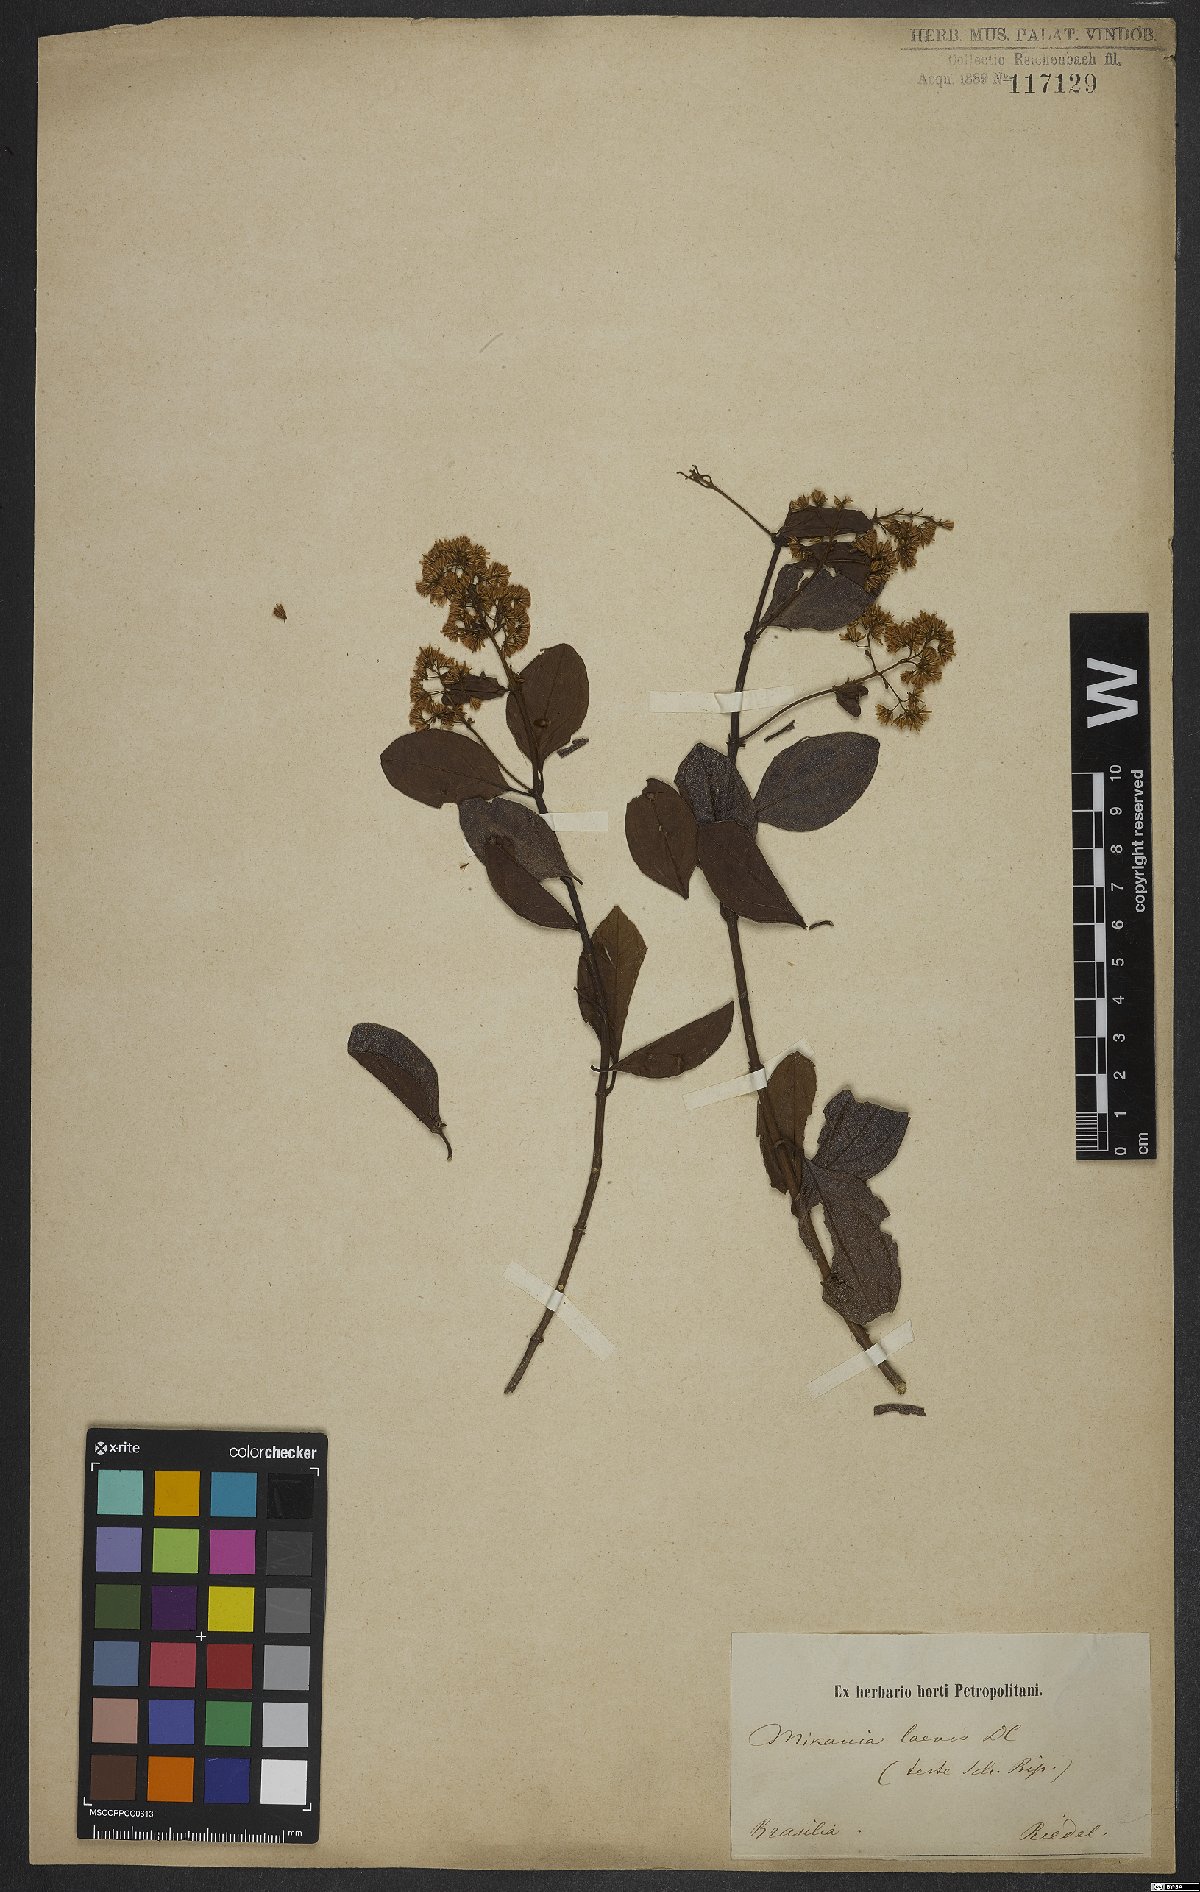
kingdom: Plantae
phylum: Tracheophyta
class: Magnoliopsida
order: Asterales
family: Asteraceae
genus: Mikania
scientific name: Mikania trinervis
